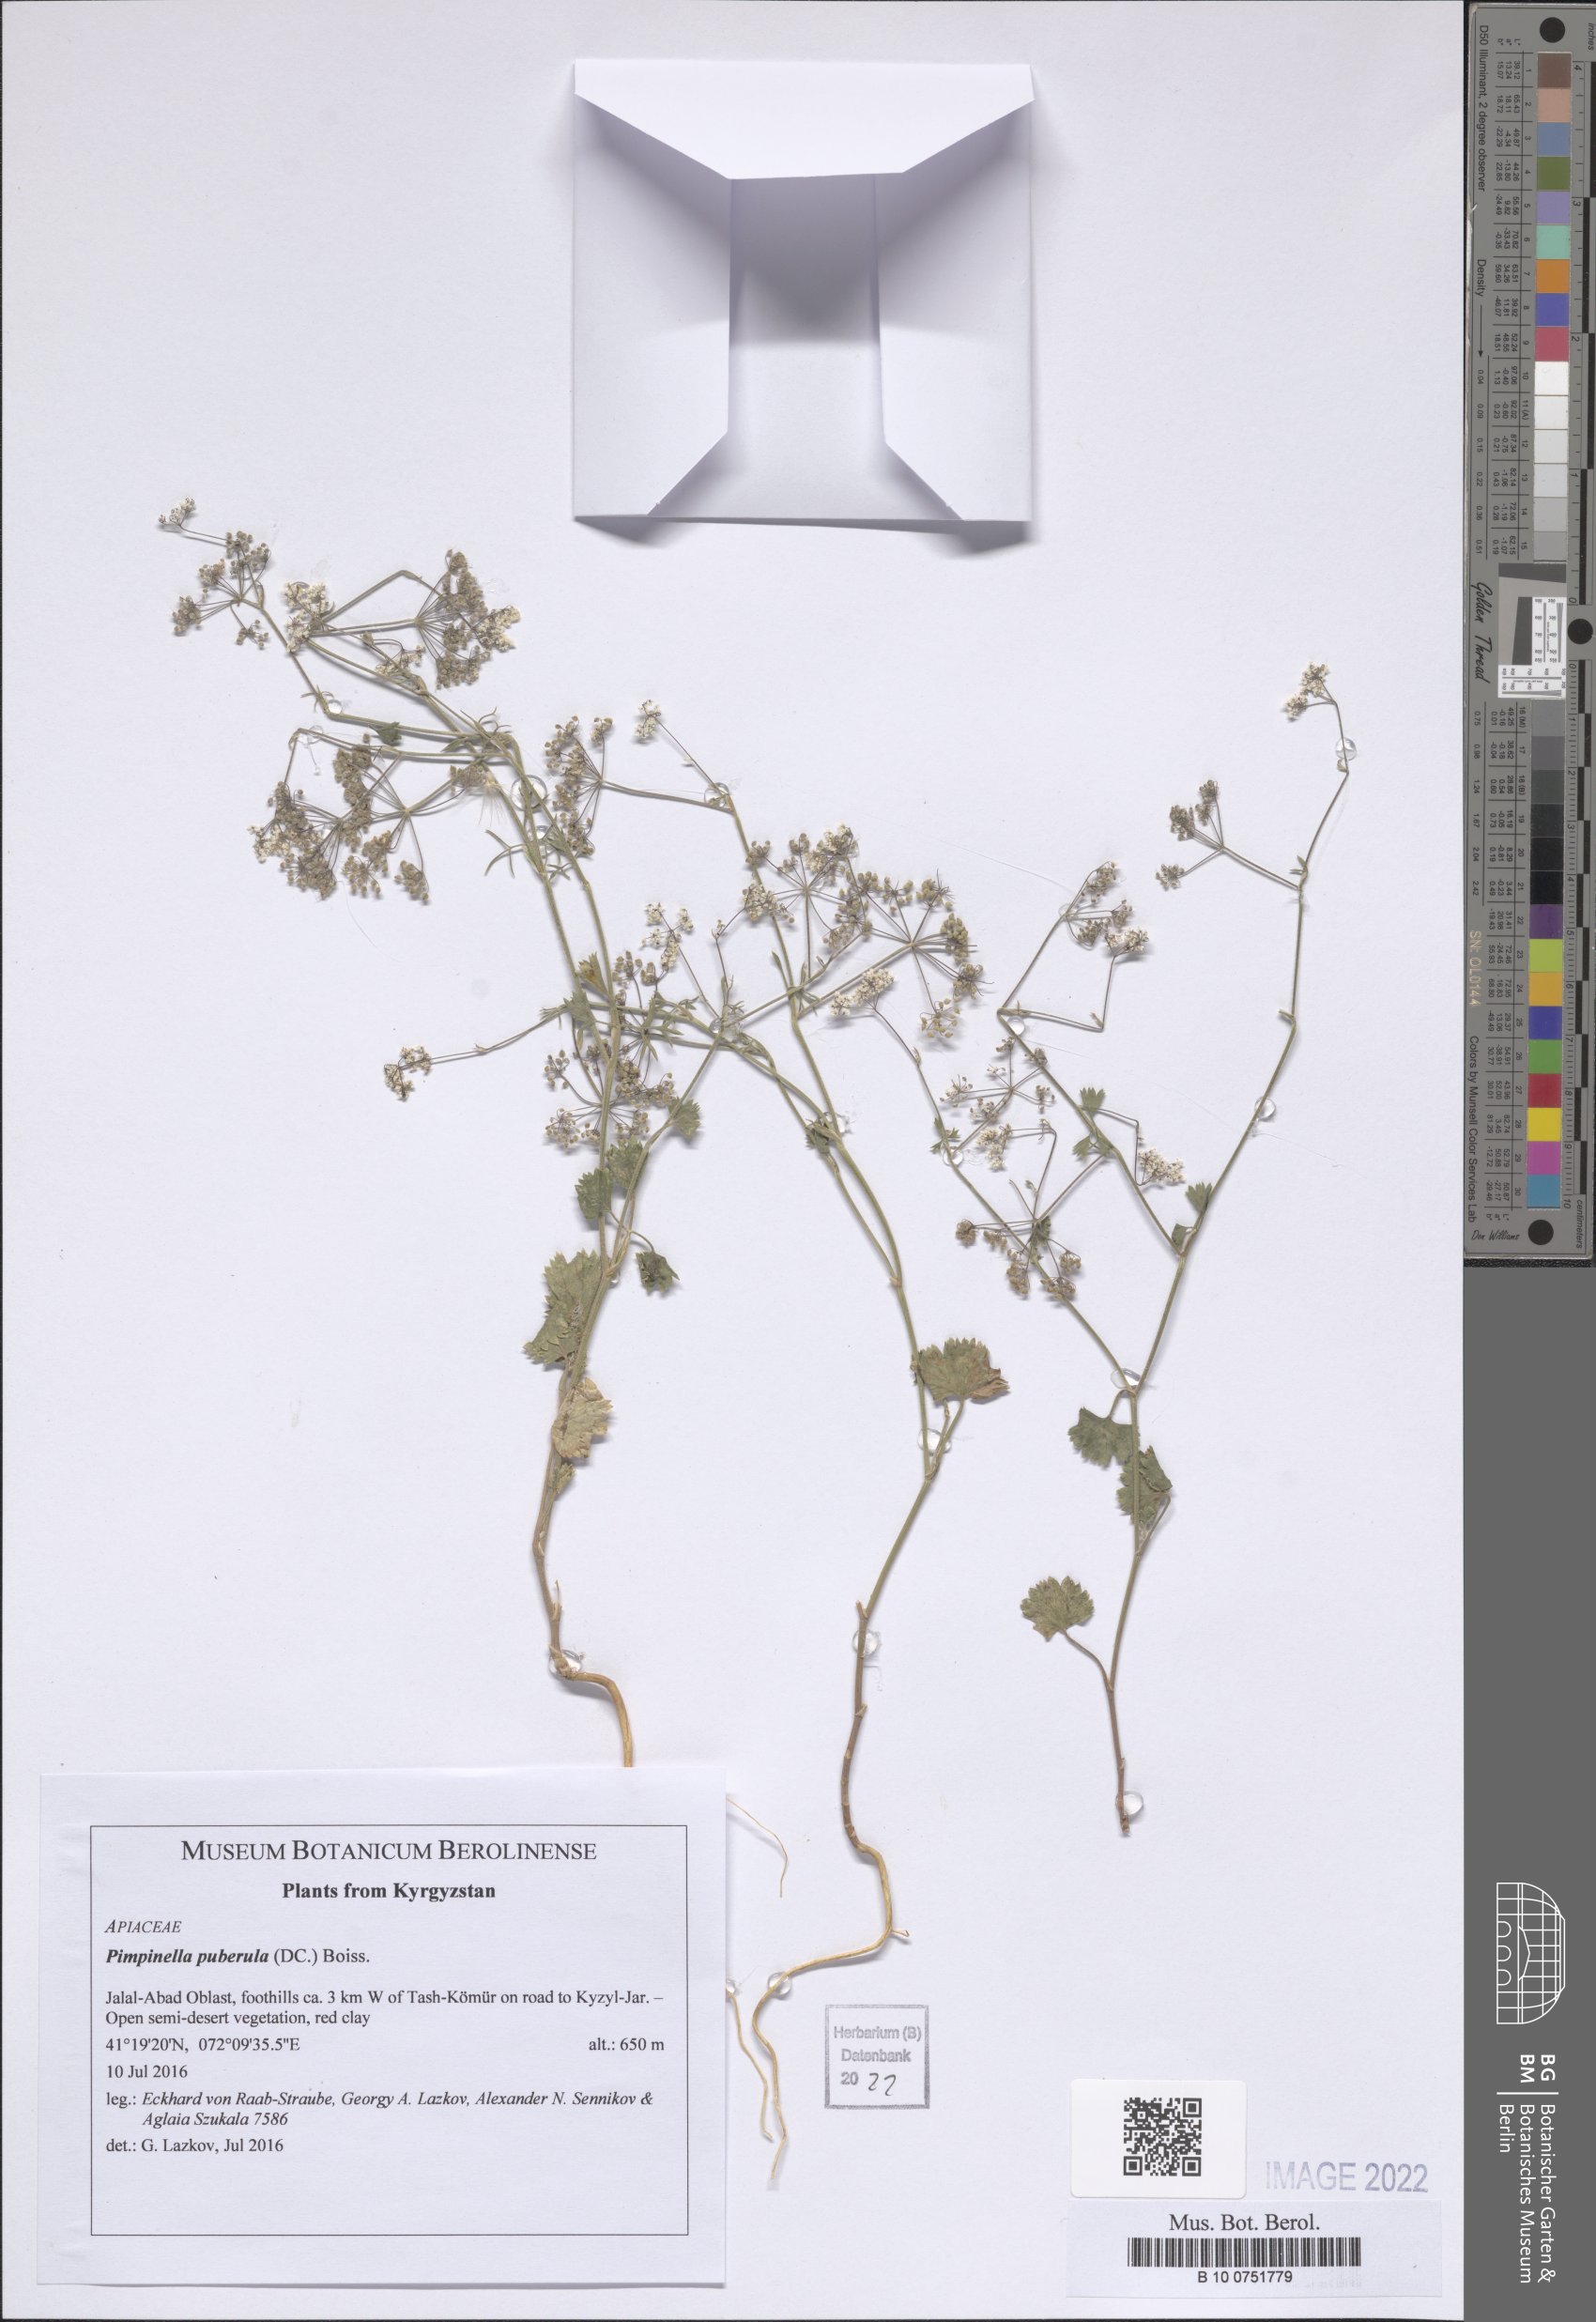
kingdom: Plantae
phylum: Tracheophyta
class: Magnoliopsida
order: Apiales
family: Apiaceae
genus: Pimpinella
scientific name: Pimpinella puberula
